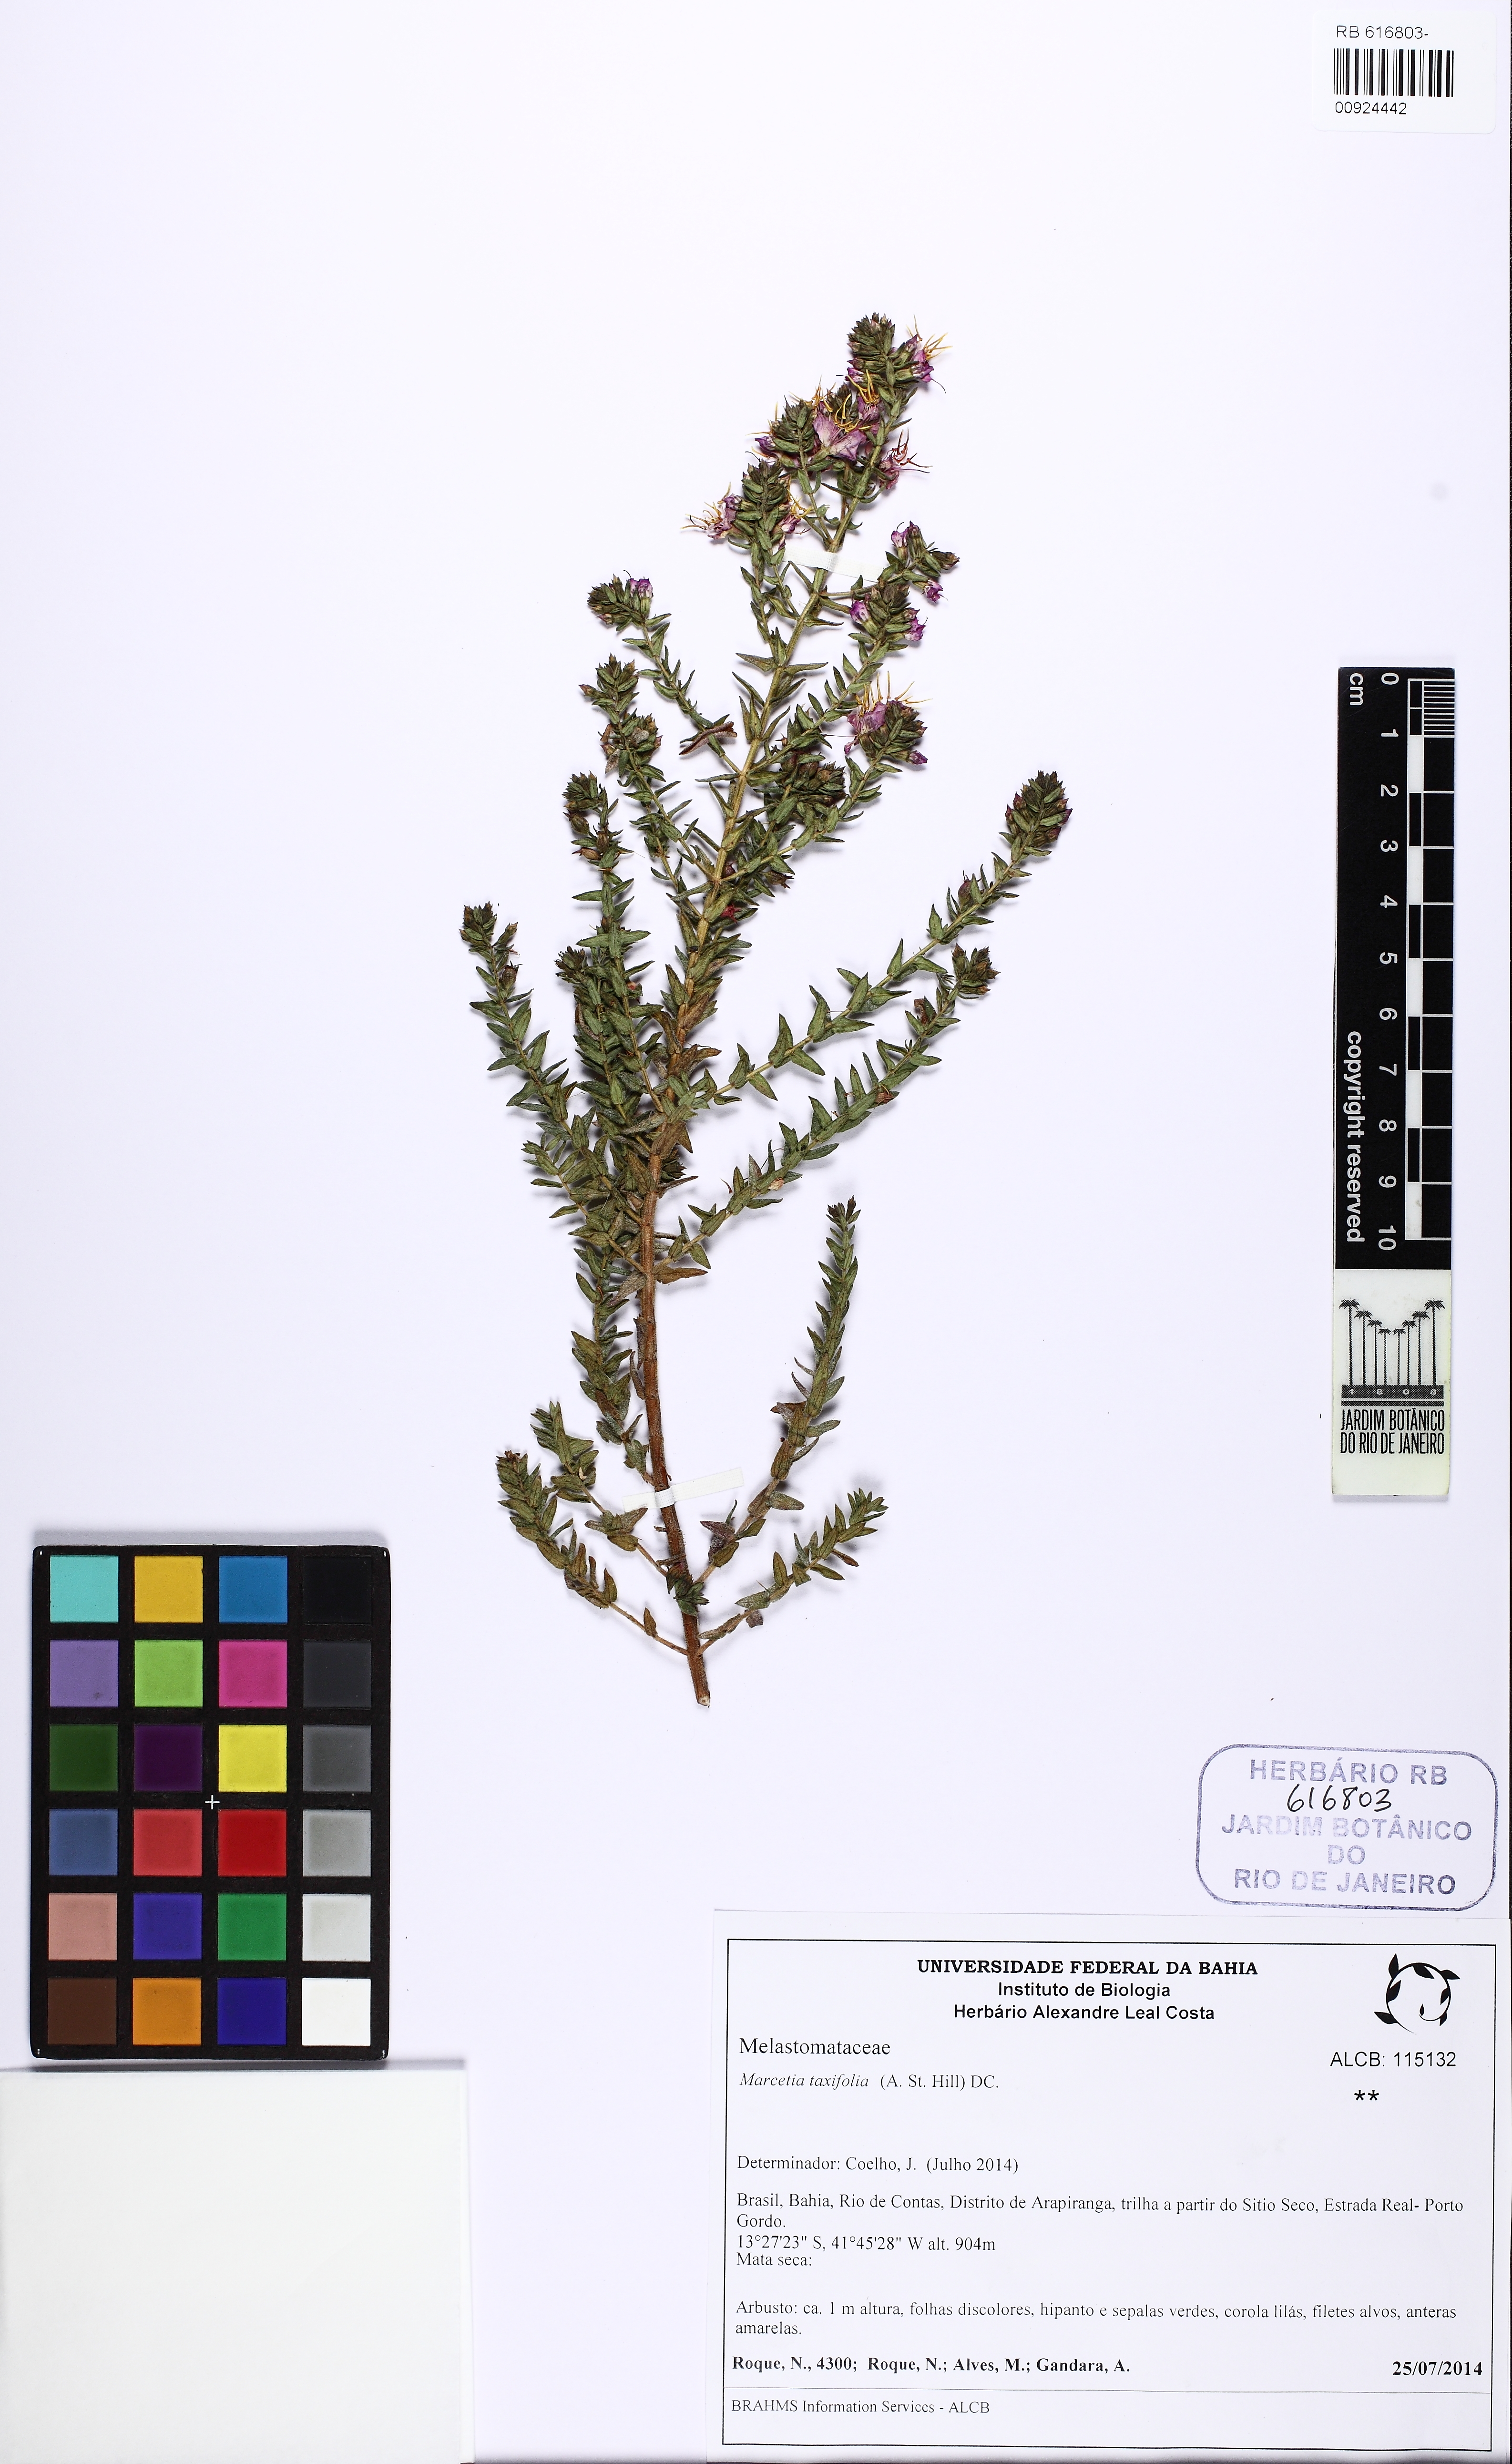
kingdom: Plantae
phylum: Tracheophyta
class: Magnoliopsida
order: Myrtales
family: Melastomataceae
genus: Marcetia
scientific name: Marcetia taxifolia
